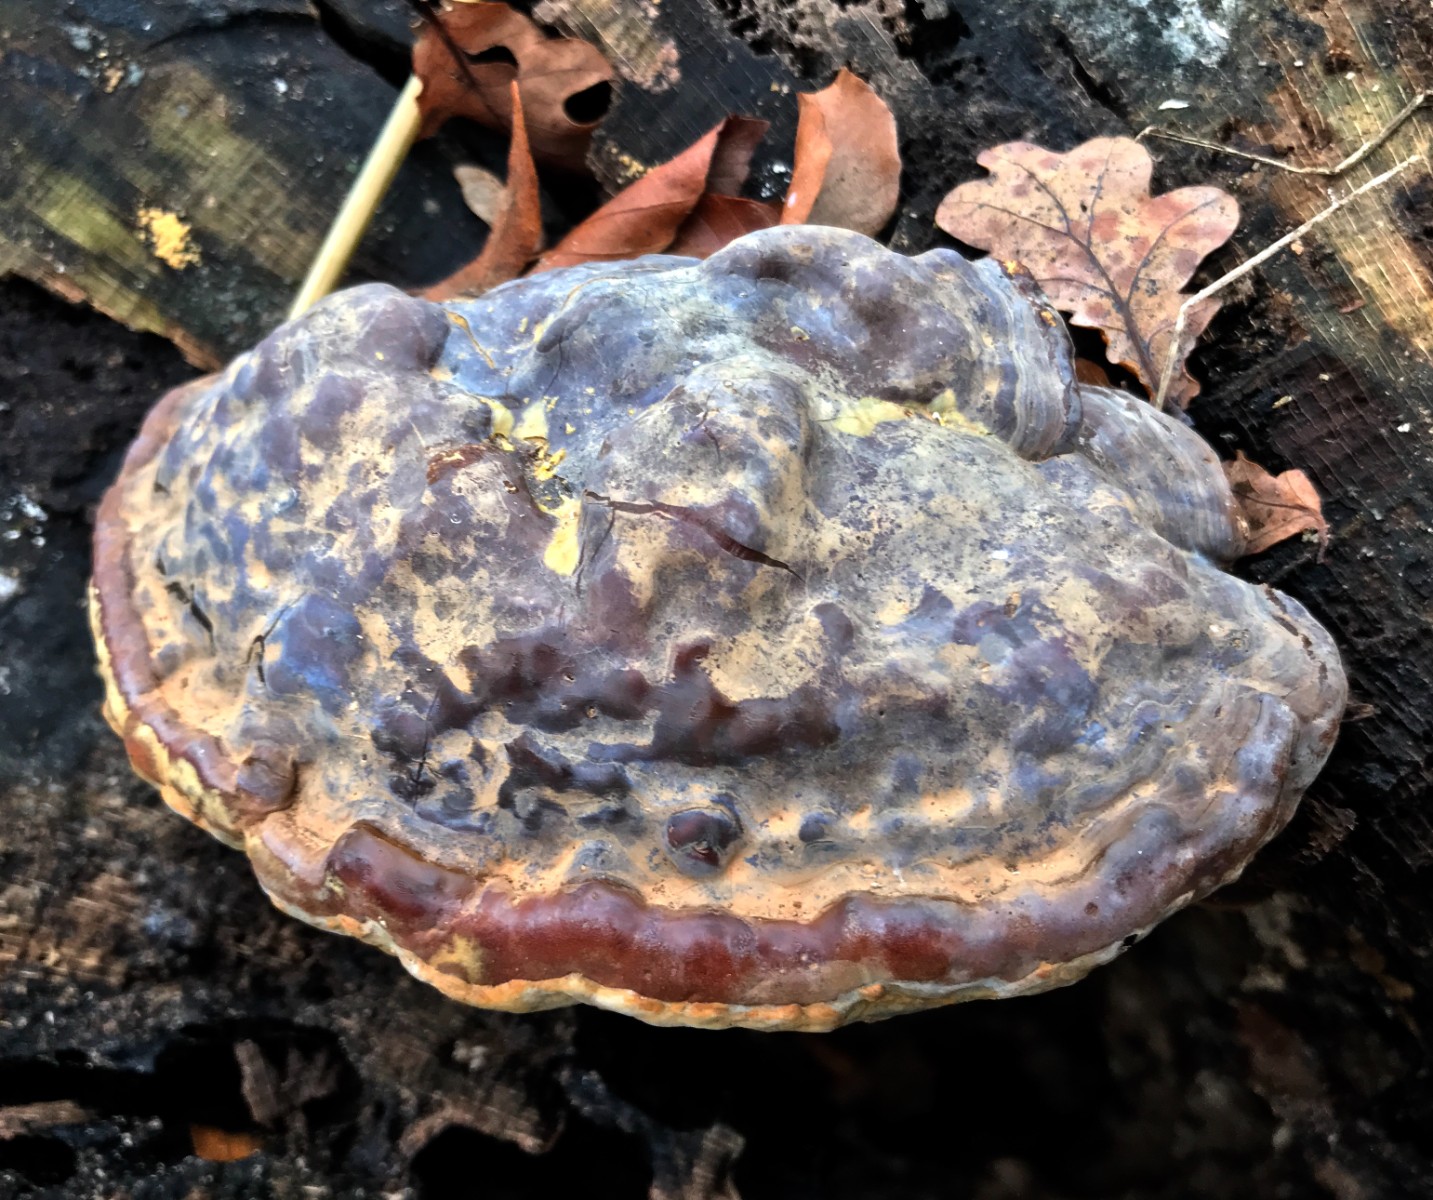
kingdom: Fungi
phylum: Basidiomycota
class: Agaricomycetes
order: Polyporales
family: Polyporaceae
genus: Ganoderma
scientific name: Ganoderma pfeifferi
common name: kobberrød lakporesvamp
